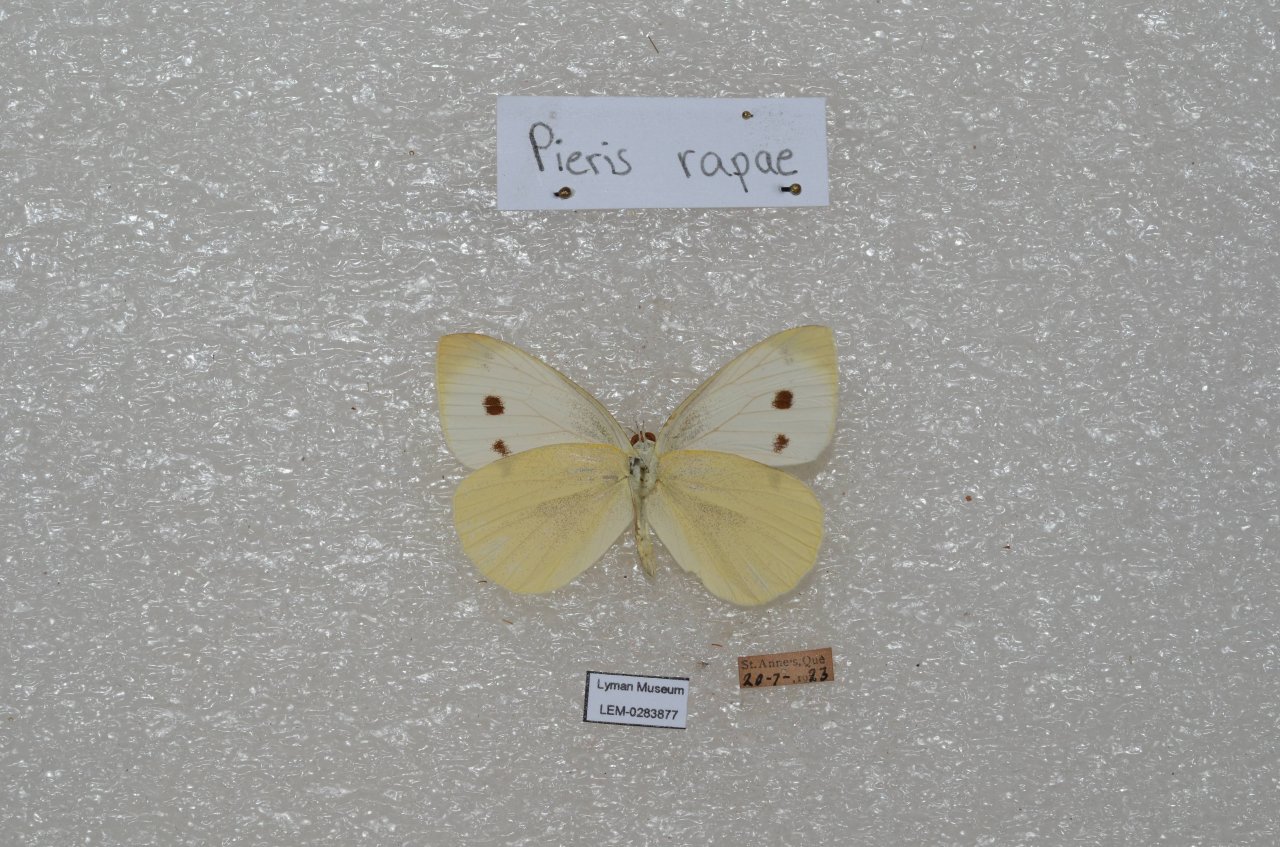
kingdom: Animalia
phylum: Arthropoda
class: Insecta
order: Lepidoptera
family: Pieridae
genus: Pieris
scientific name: Pieris rapae
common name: Cabbage White
